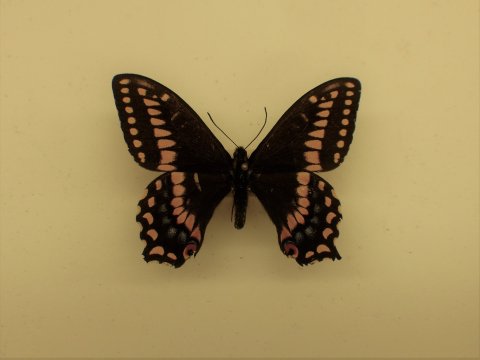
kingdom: Animalia
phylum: Arthropoda
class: Insecta
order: Lepidoptera
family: Papilionidae
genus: Papilio
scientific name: Papilio brevicauda
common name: Short-tailed Swallowtail
